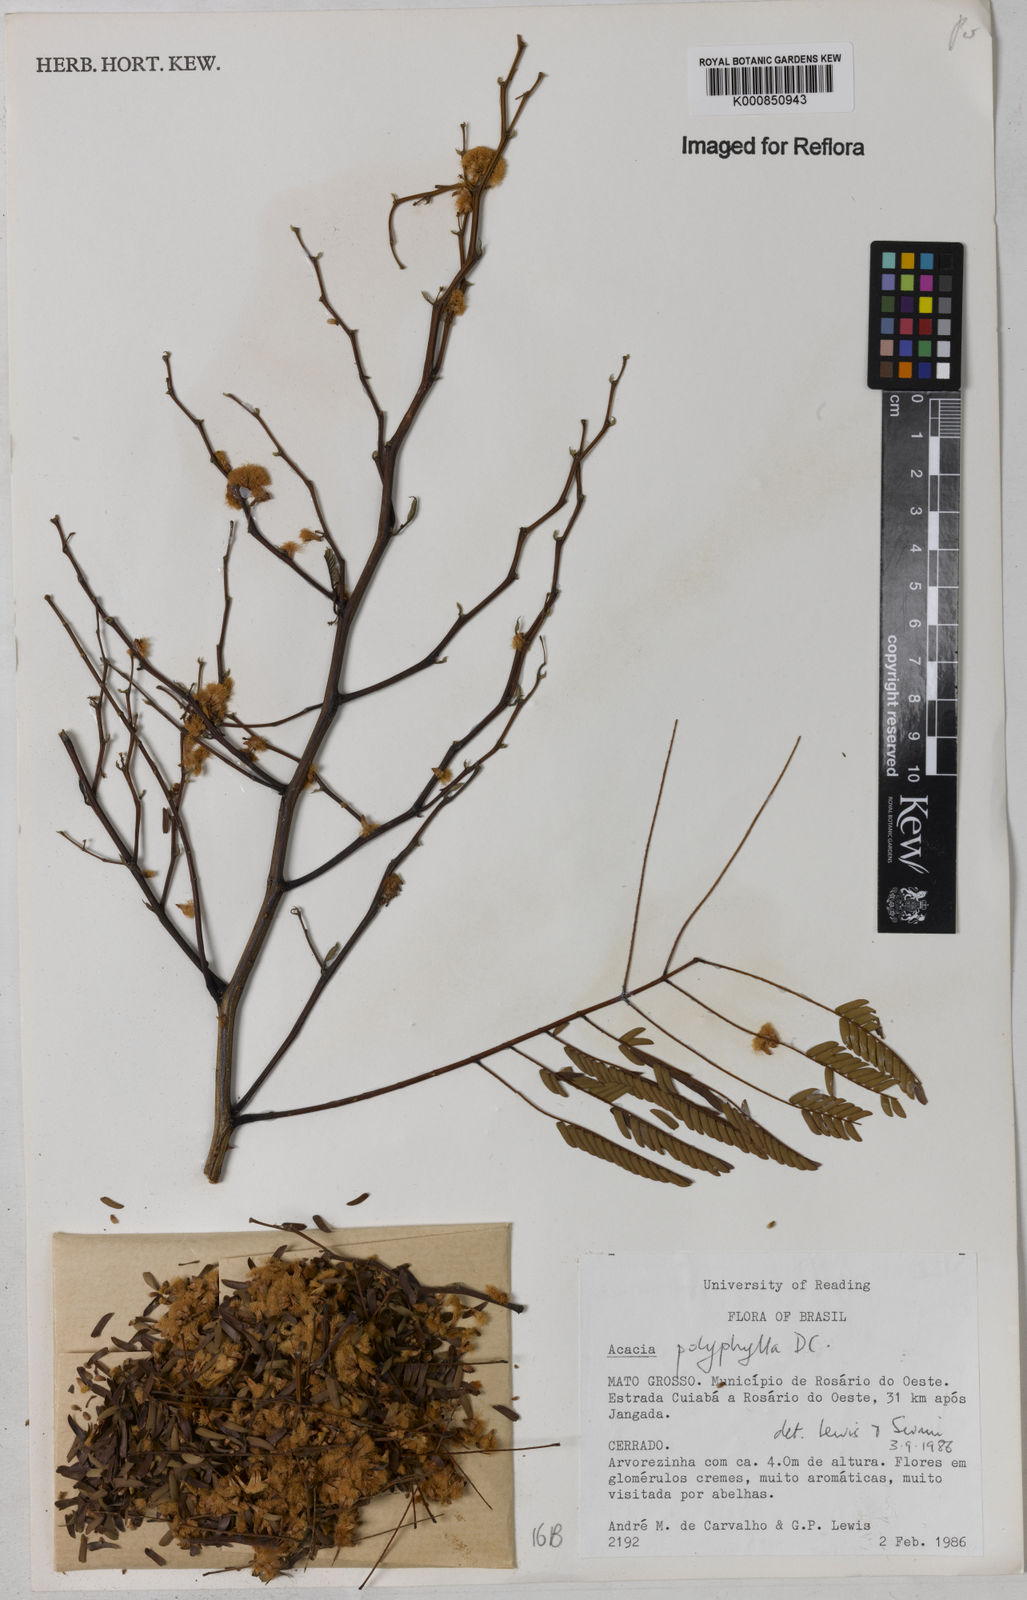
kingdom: Plantae
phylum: Tracheophyta
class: Magnoliopsida
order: Fabales
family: Fabaceae
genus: Senegalia
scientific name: Senegalia polyphylla
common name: White-tamarind
